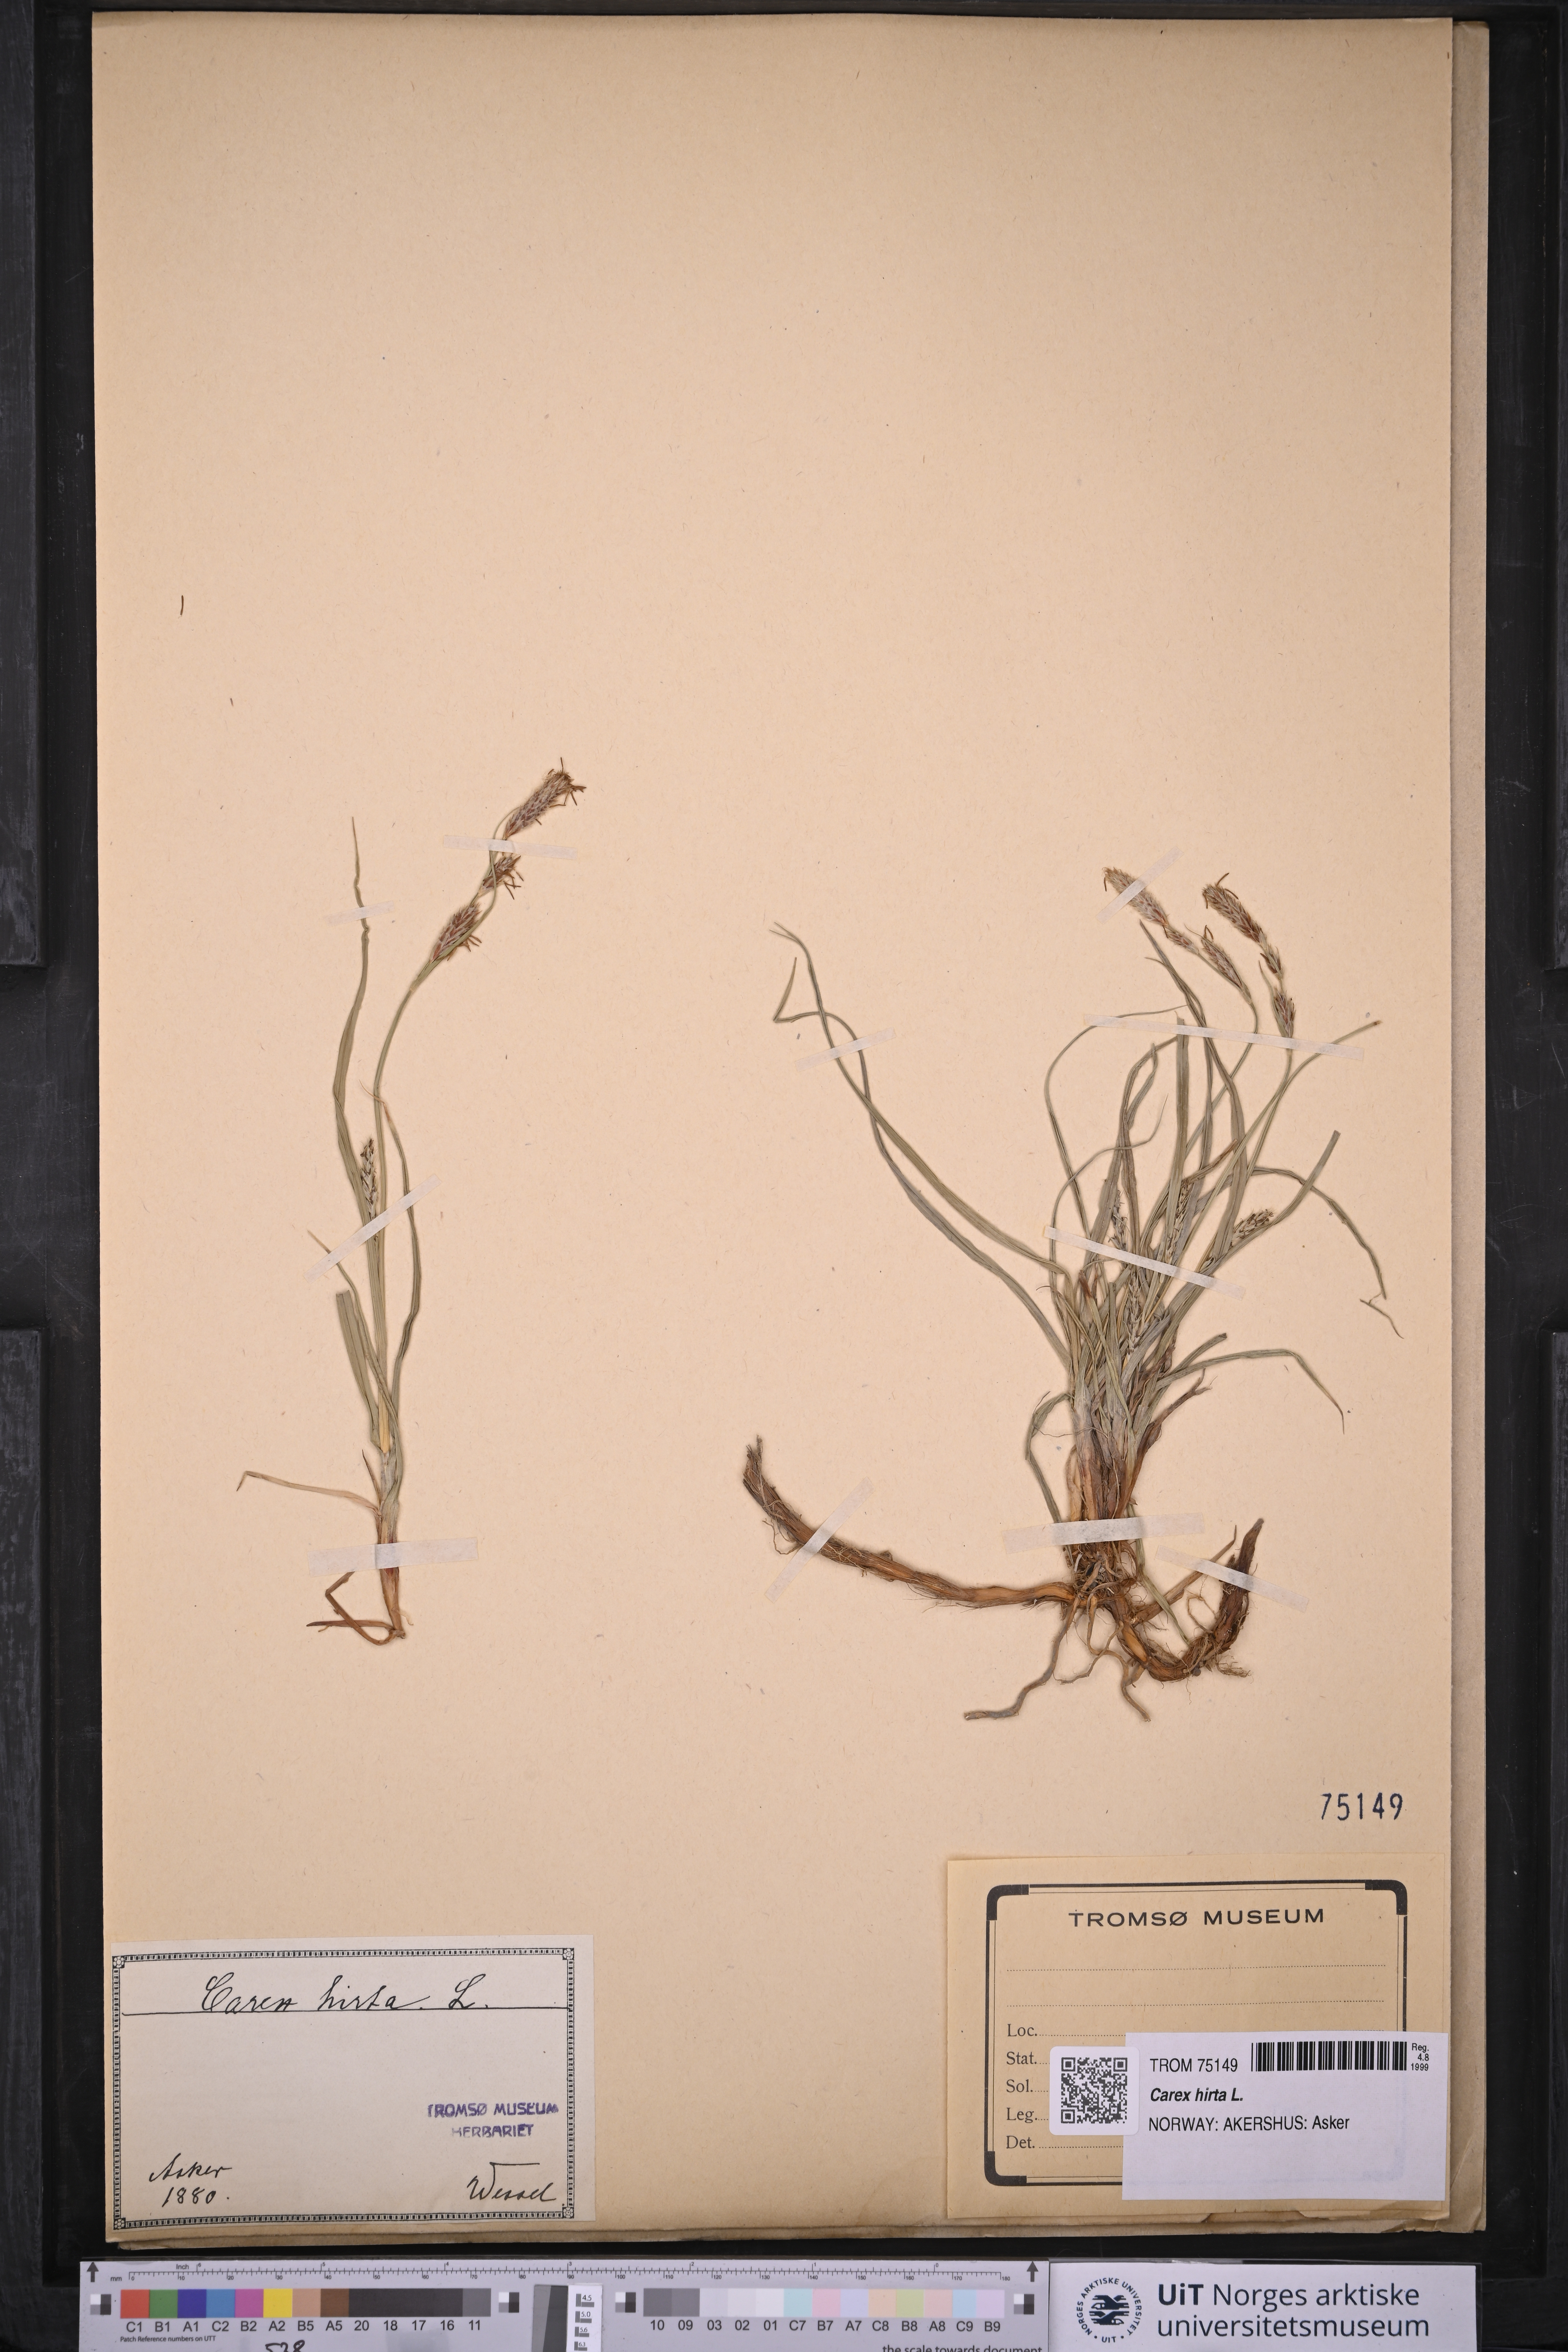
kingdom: Plantae
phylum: Tracheophyta
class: Liliopsida
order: Poales
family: Cyperaceae
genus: Carex
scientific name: Carex hirta
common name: Hairy sedge
